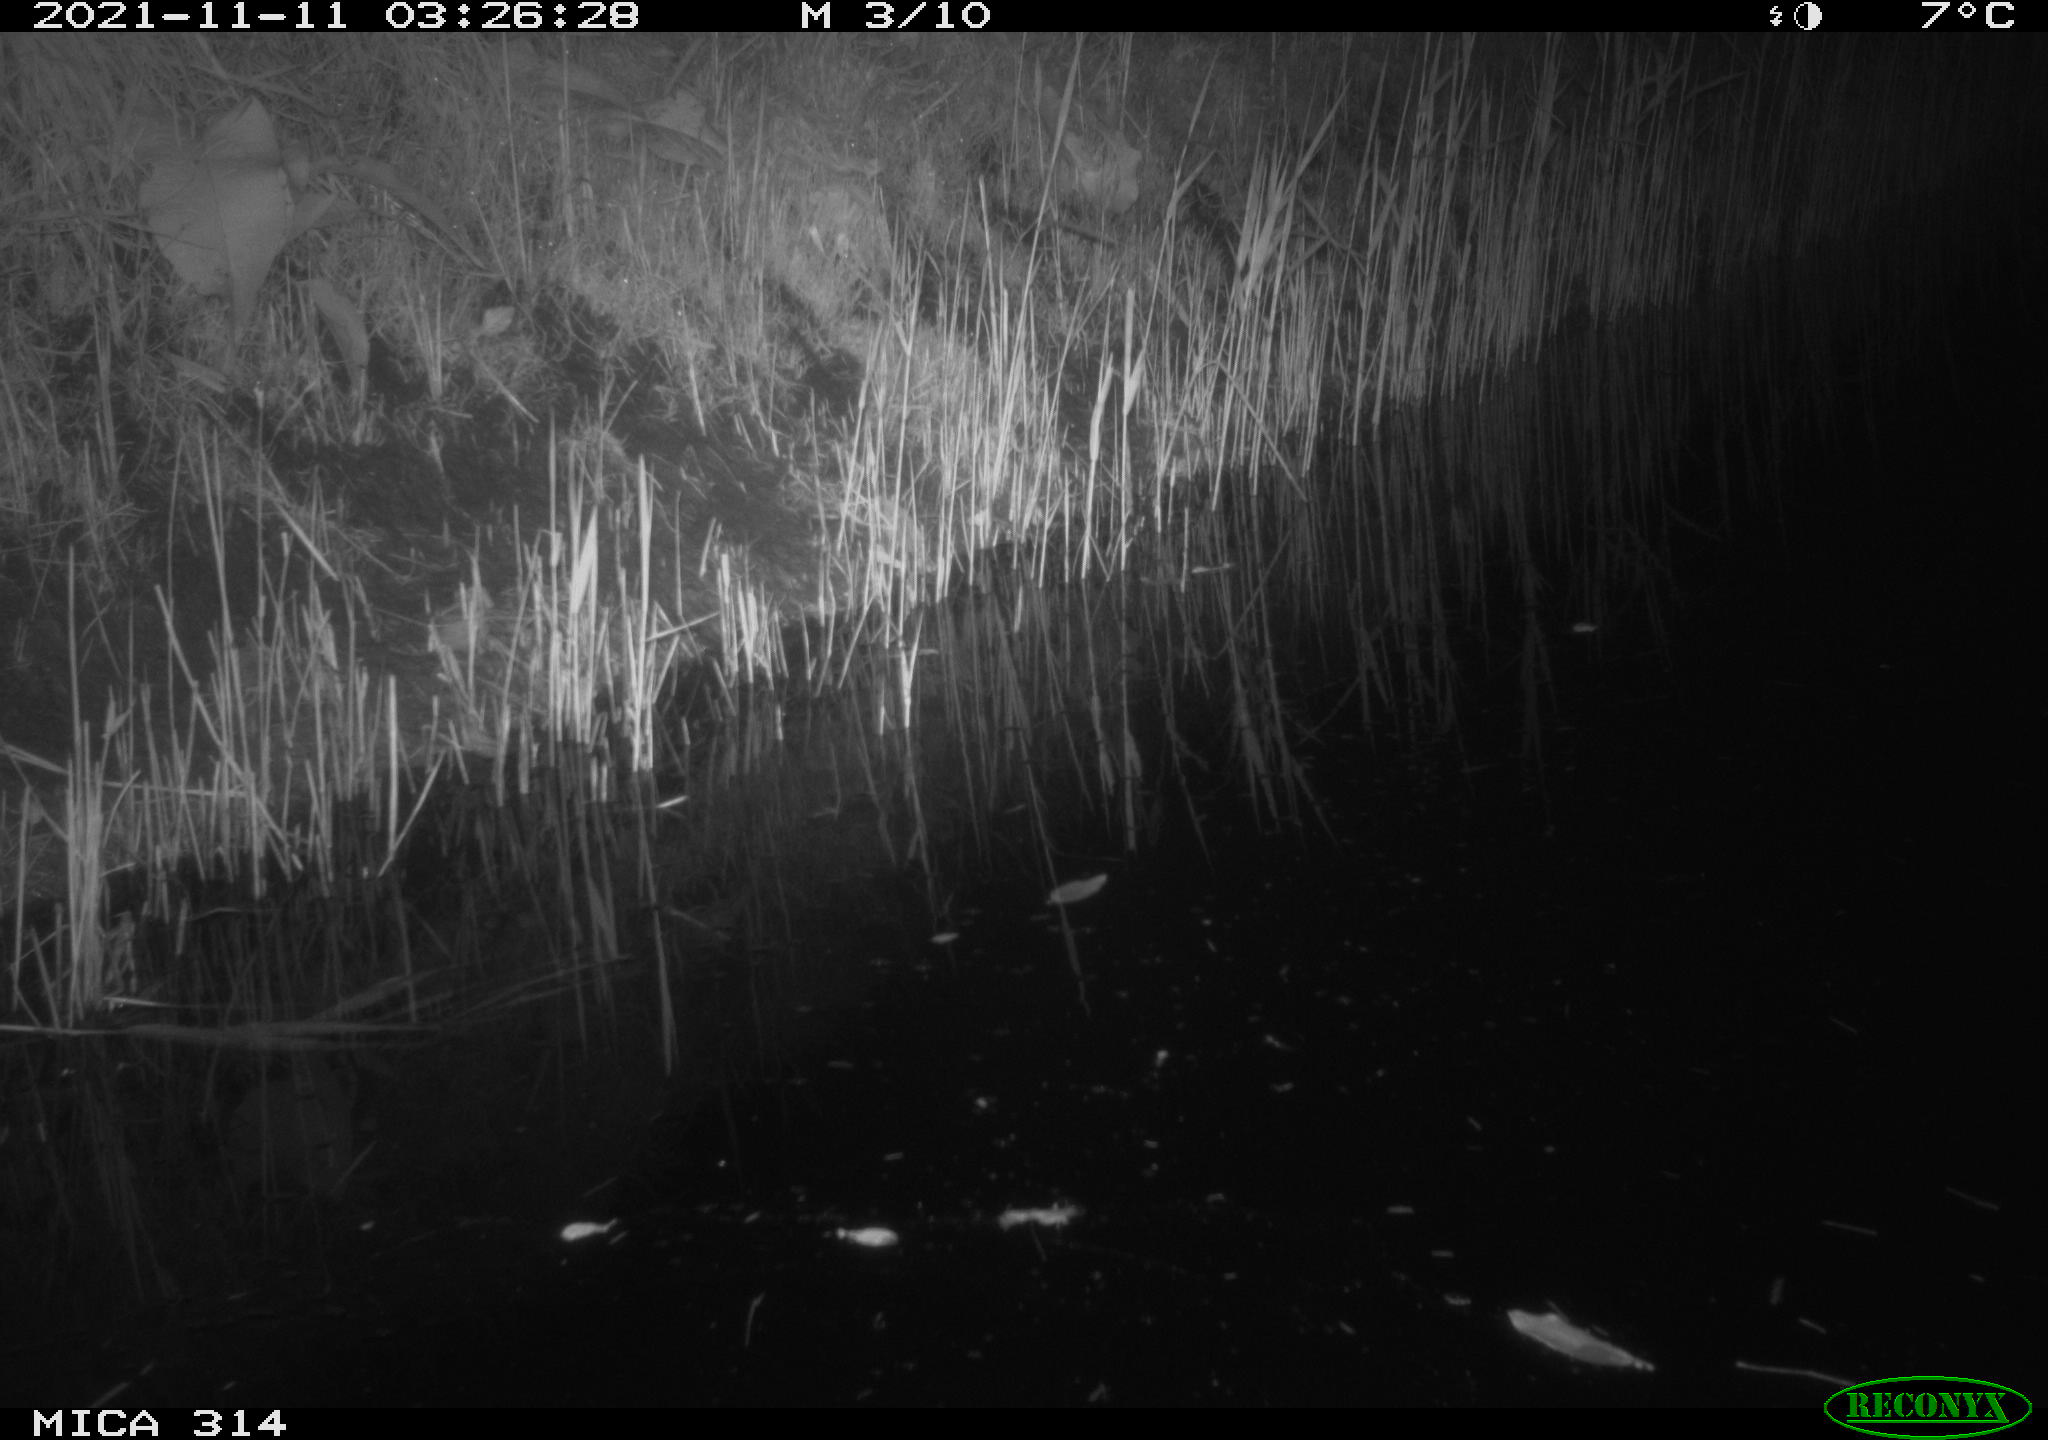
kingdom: Animalia
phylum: Chordata
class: Mammalia
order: Rodentia
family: Muridae
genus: Rattus
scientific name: Rattus norvegicus
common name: Brown rat
